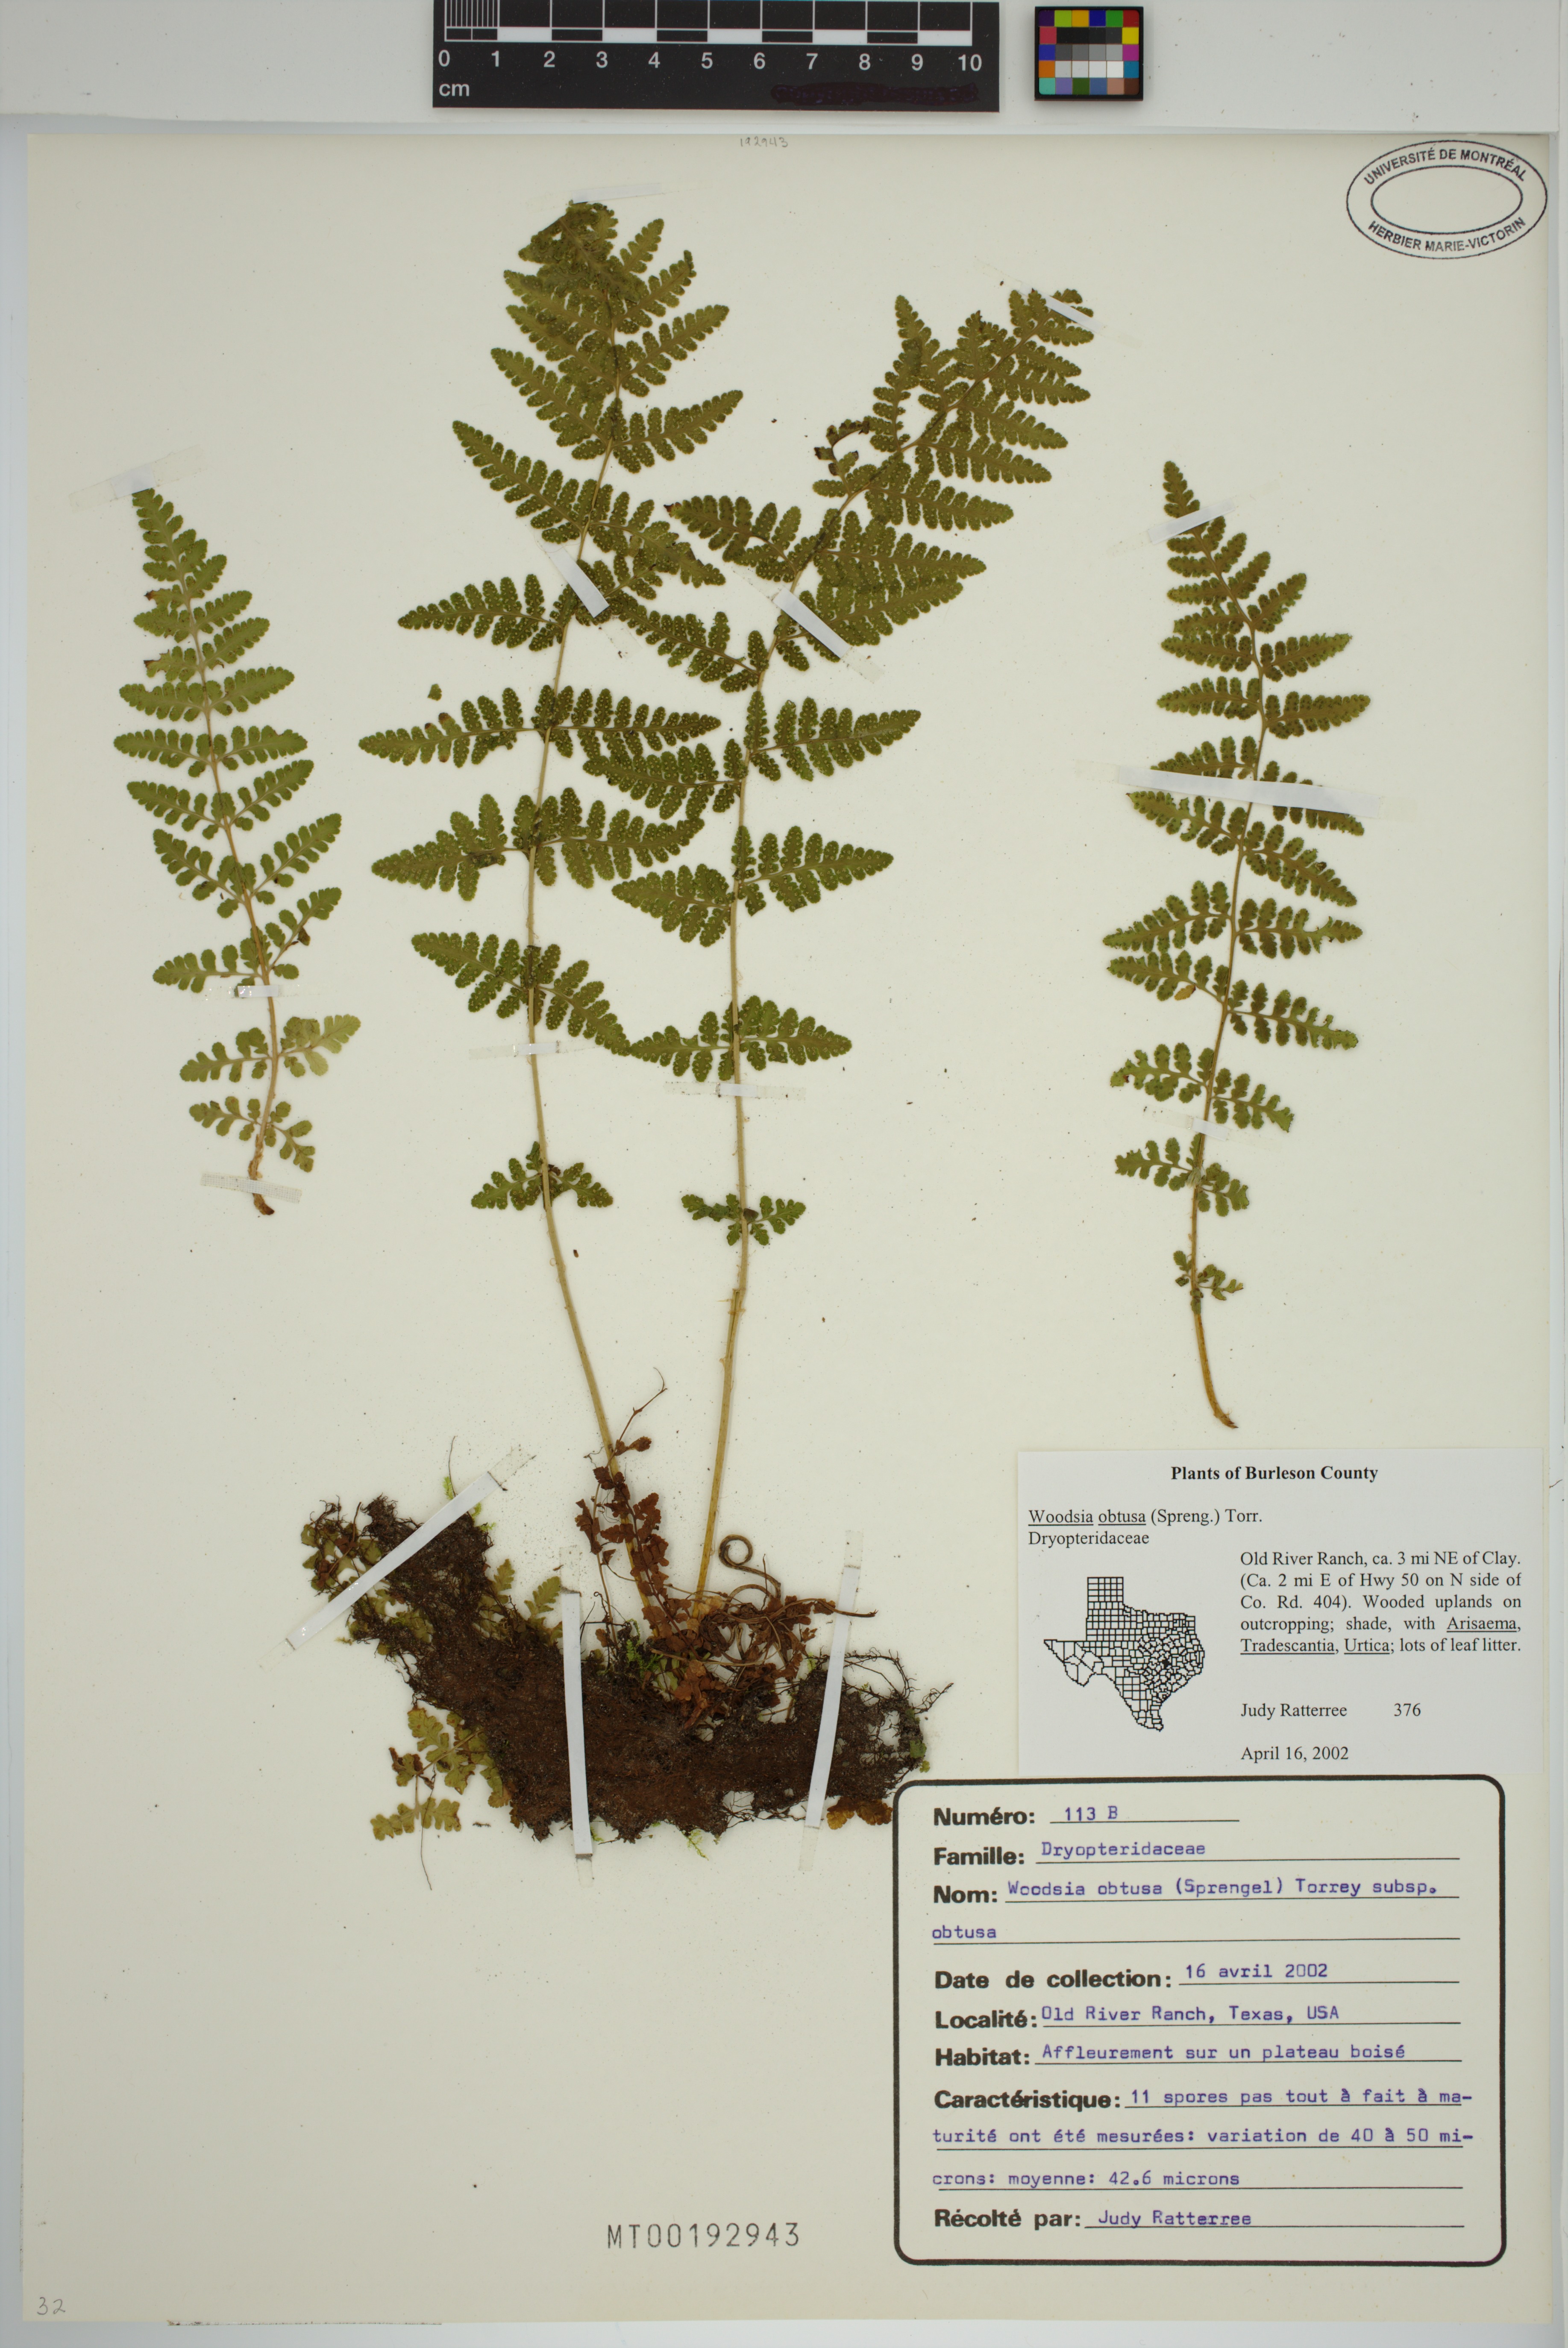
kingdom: Plantae
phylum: Tracheophyta
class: Polypodiopsida
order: Polypodiales
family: Woodsiaceae
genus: Physematium
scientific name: Physematium obtusum
